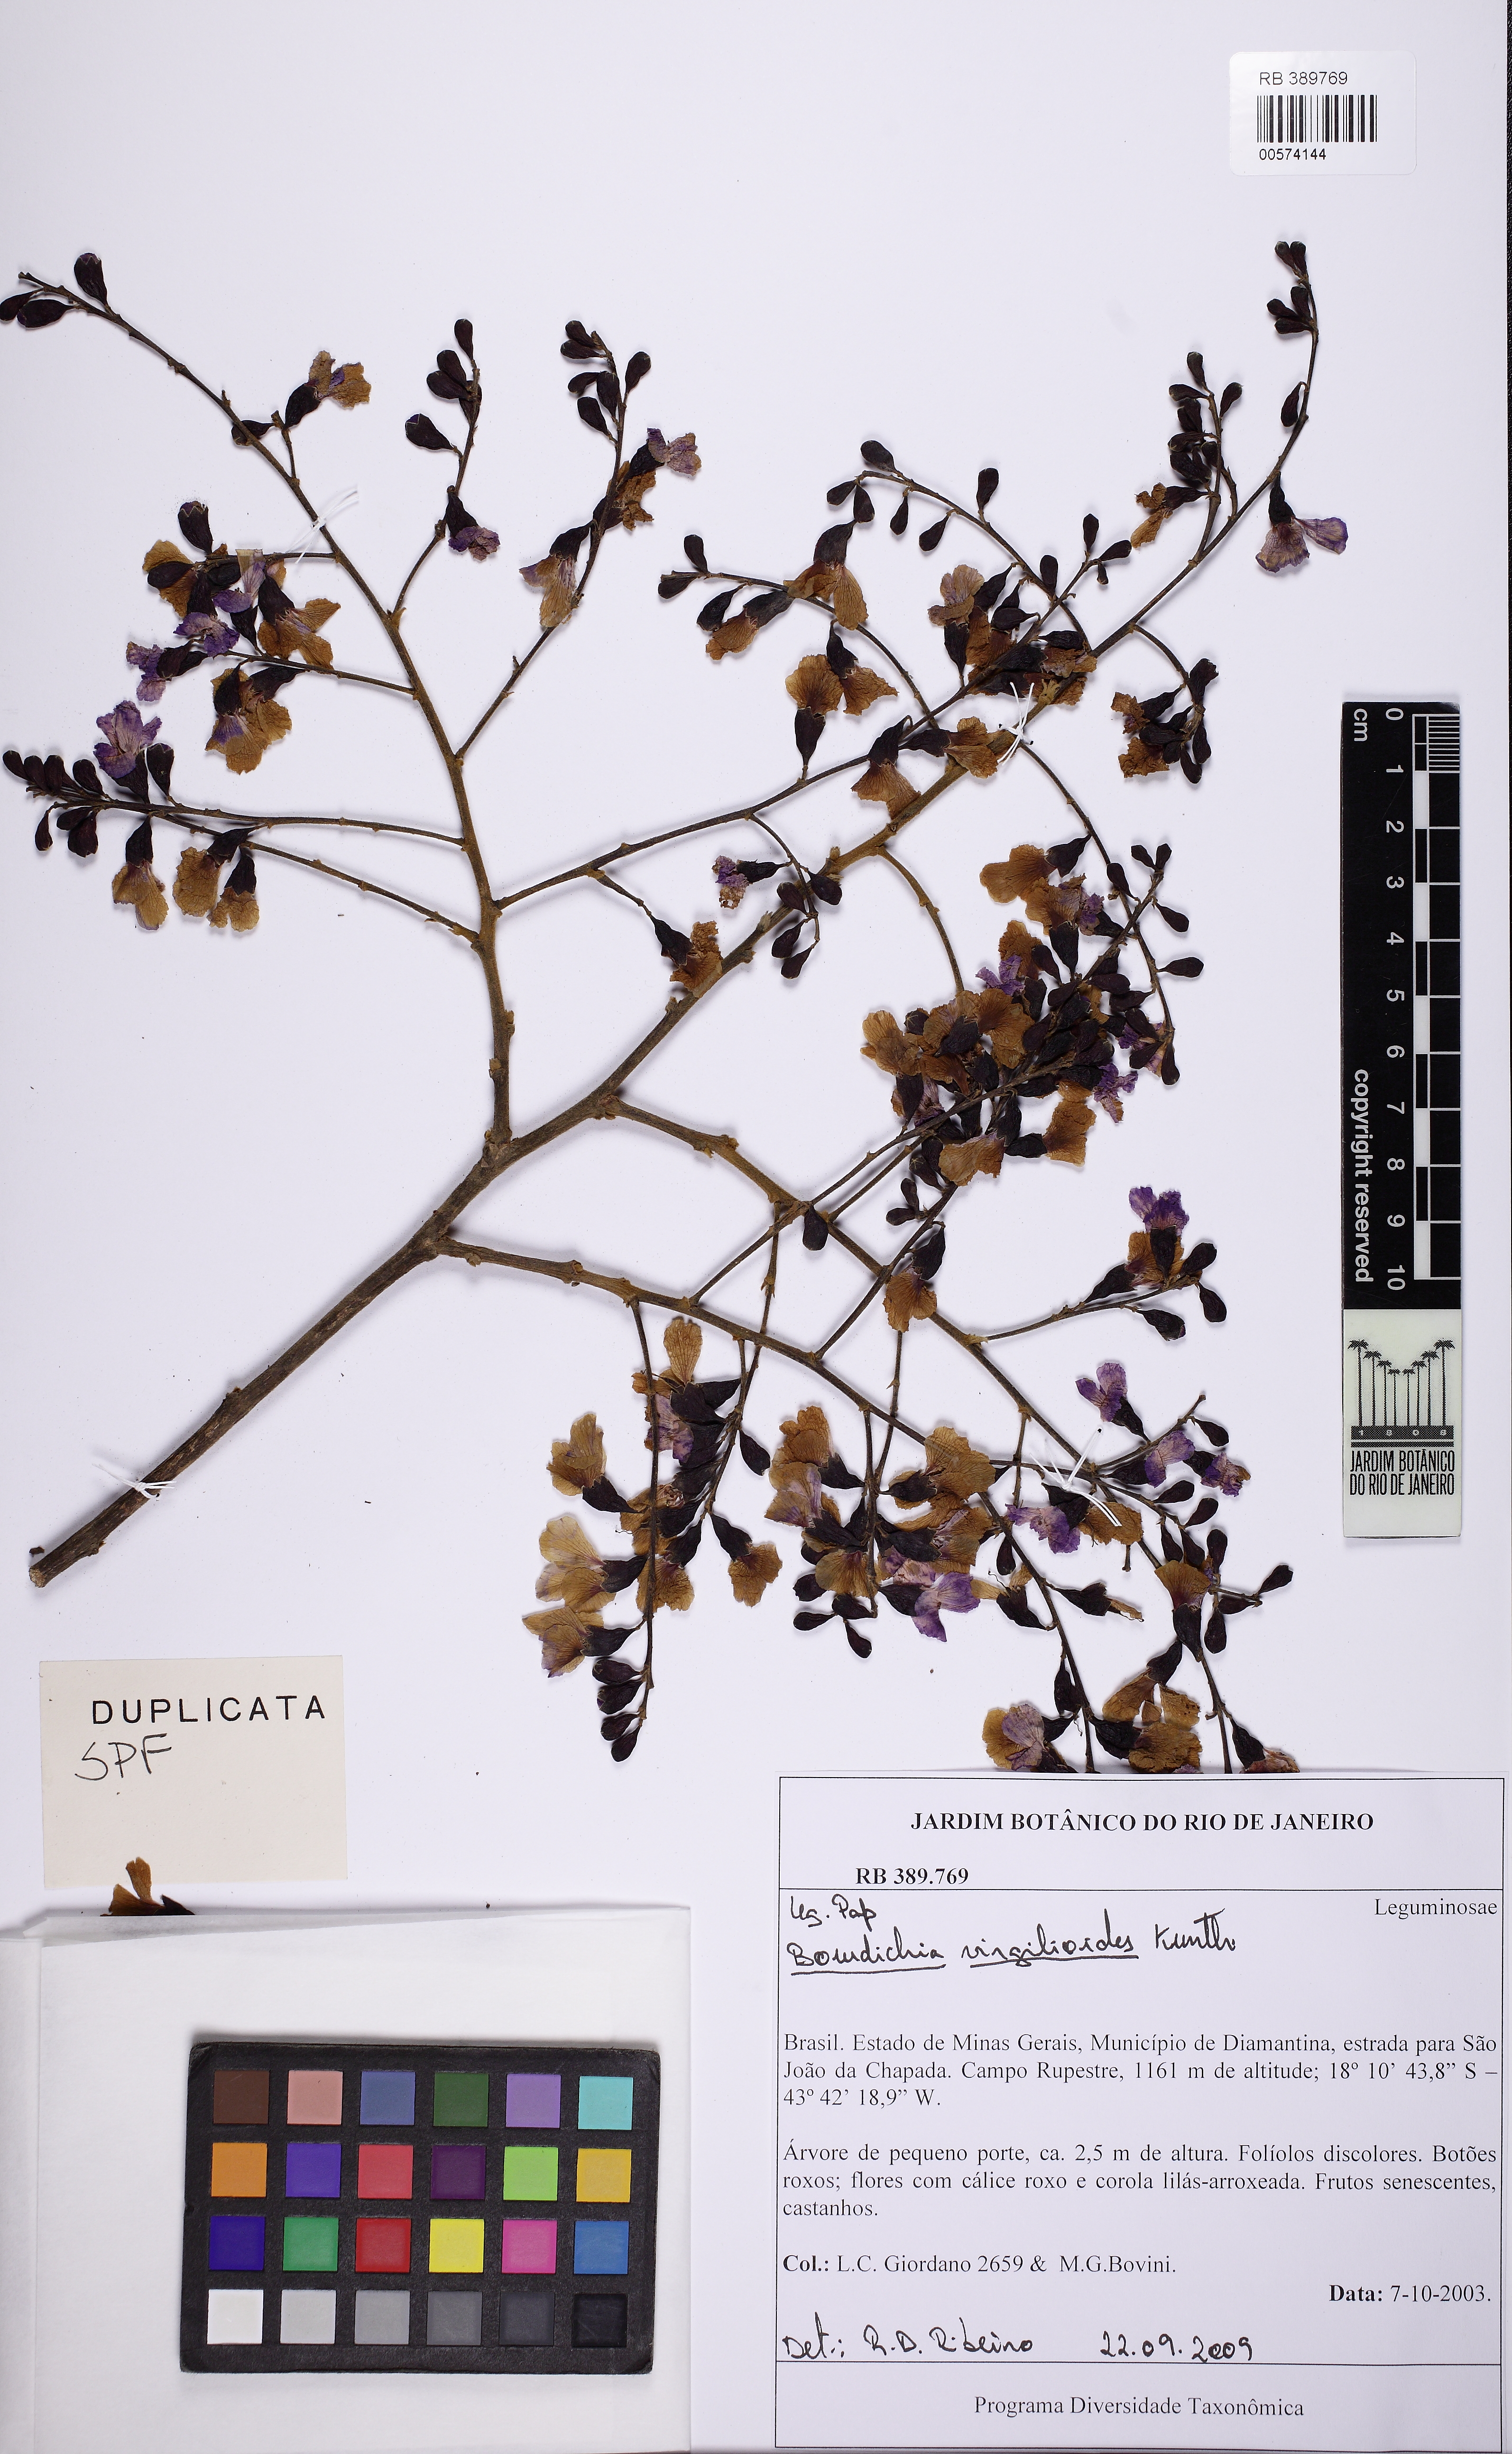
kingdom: Plantae
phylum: Tracheophyta
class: Magnoliopsida
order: Fabales
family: Fabaceae
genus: Bowdichia
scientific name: Bowdichia virgilioides
